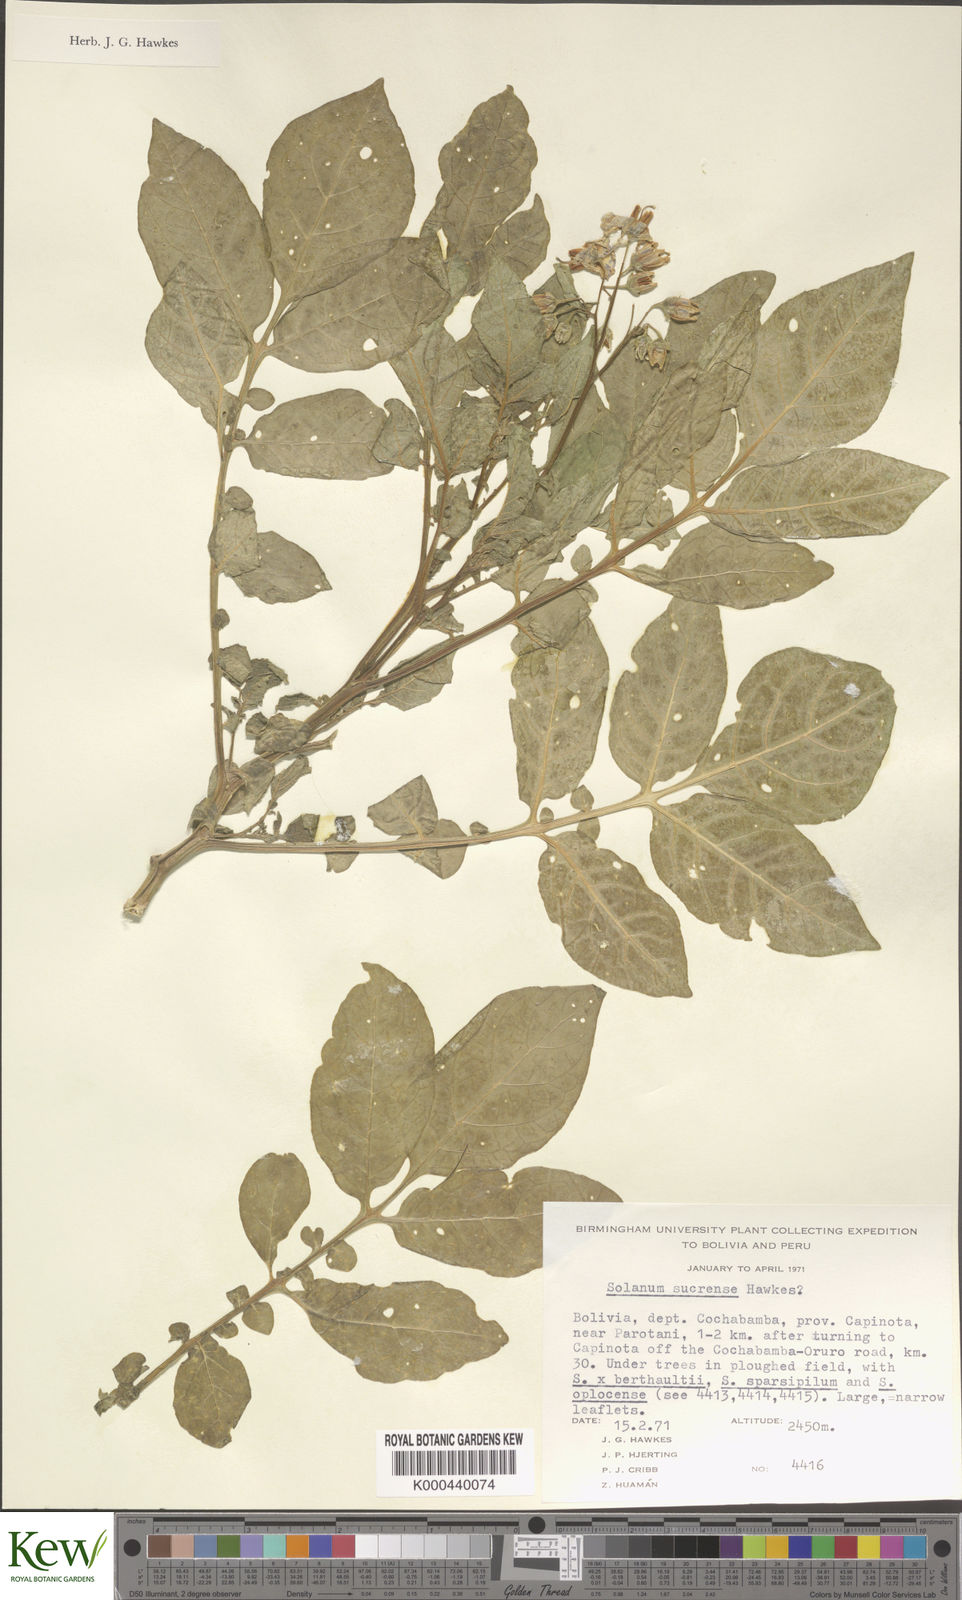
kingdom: Plantae
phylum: Tracheophyta
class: Magnoliopsida
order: Solanales
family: Solanaceae
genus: Solanum
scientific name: Solanum brevicaule
